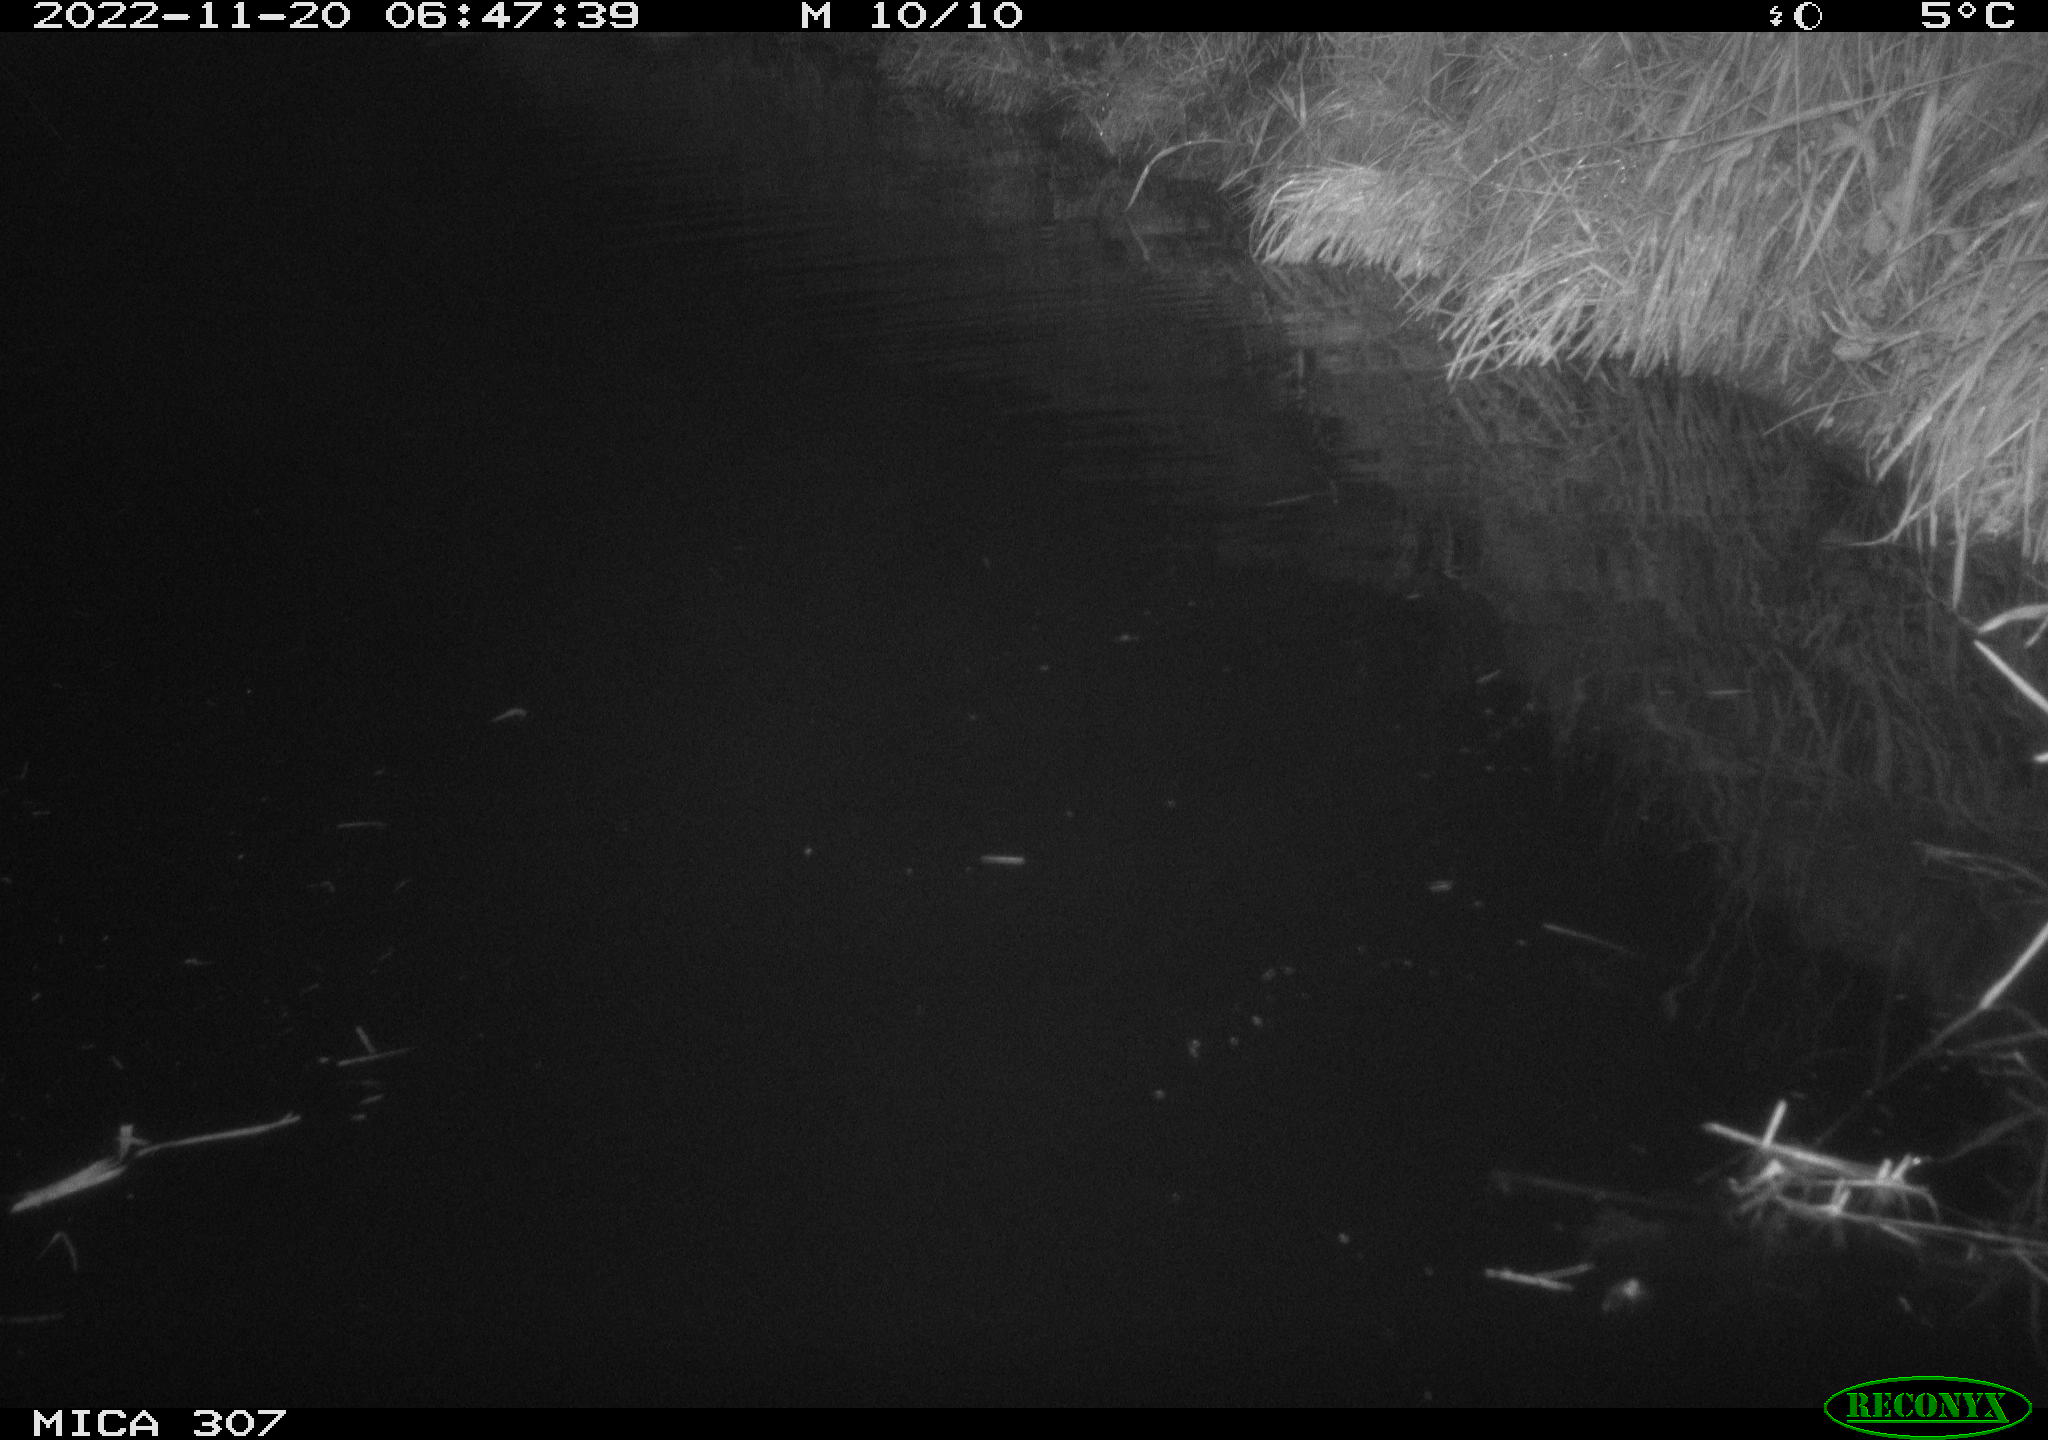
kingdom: Animalia
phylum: Chordata
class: Aves
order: Anseriformes
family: Anatidae
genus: Anas
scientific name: Anas
